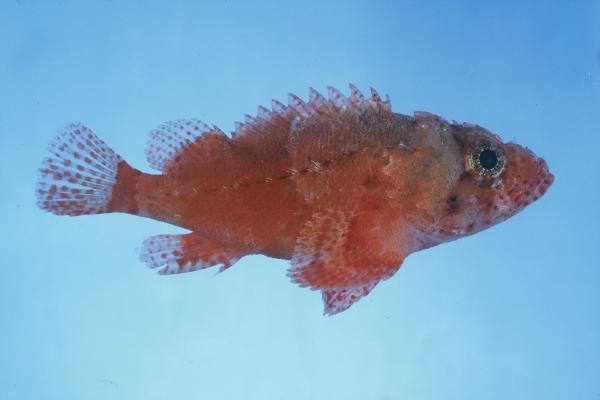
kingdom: Animalia
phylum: Chordata
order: Scorpaeniformes
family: Scorpaenidae
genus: Scorpaenodes
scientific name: Scorpaenodes parvipinnis
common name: Coral scorpionfish
